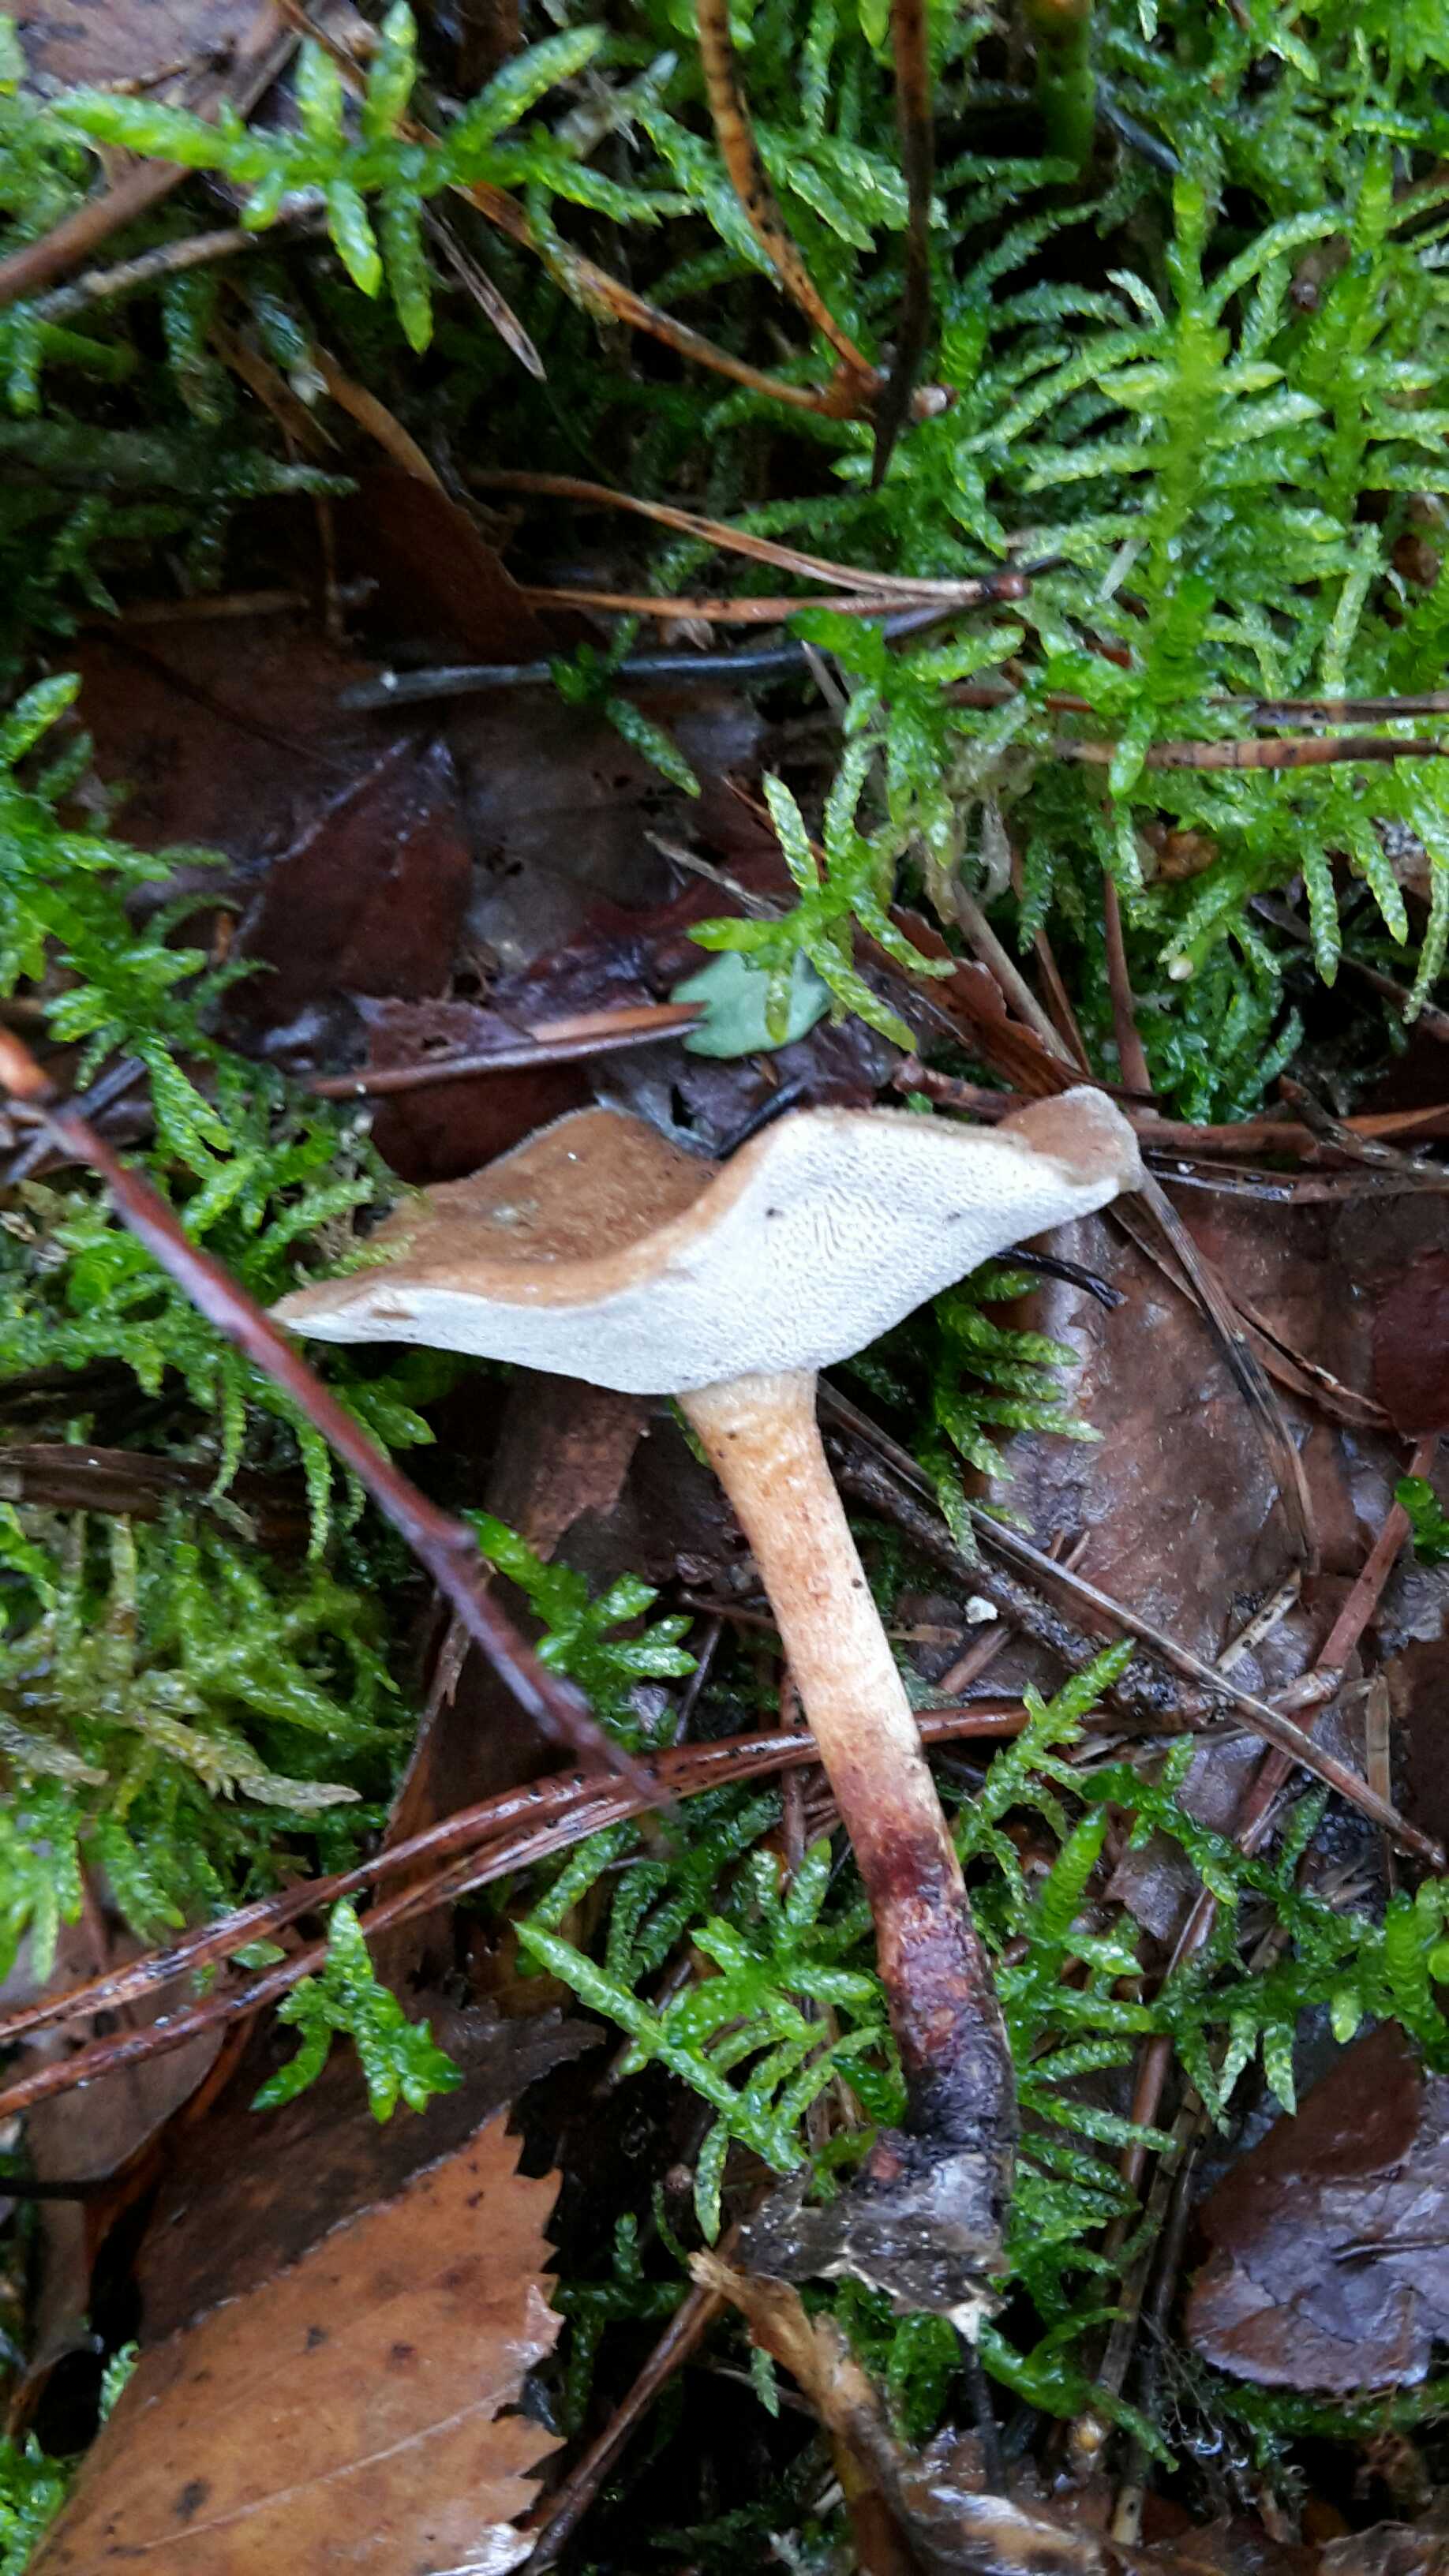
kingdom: Fungi
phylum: Basidiomycota
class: Agaricomycetes
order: Polyporales
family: Polyporaceae
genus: Lentinus
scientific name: Lentinus brumalis
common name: vinter-stilkporesvamp
